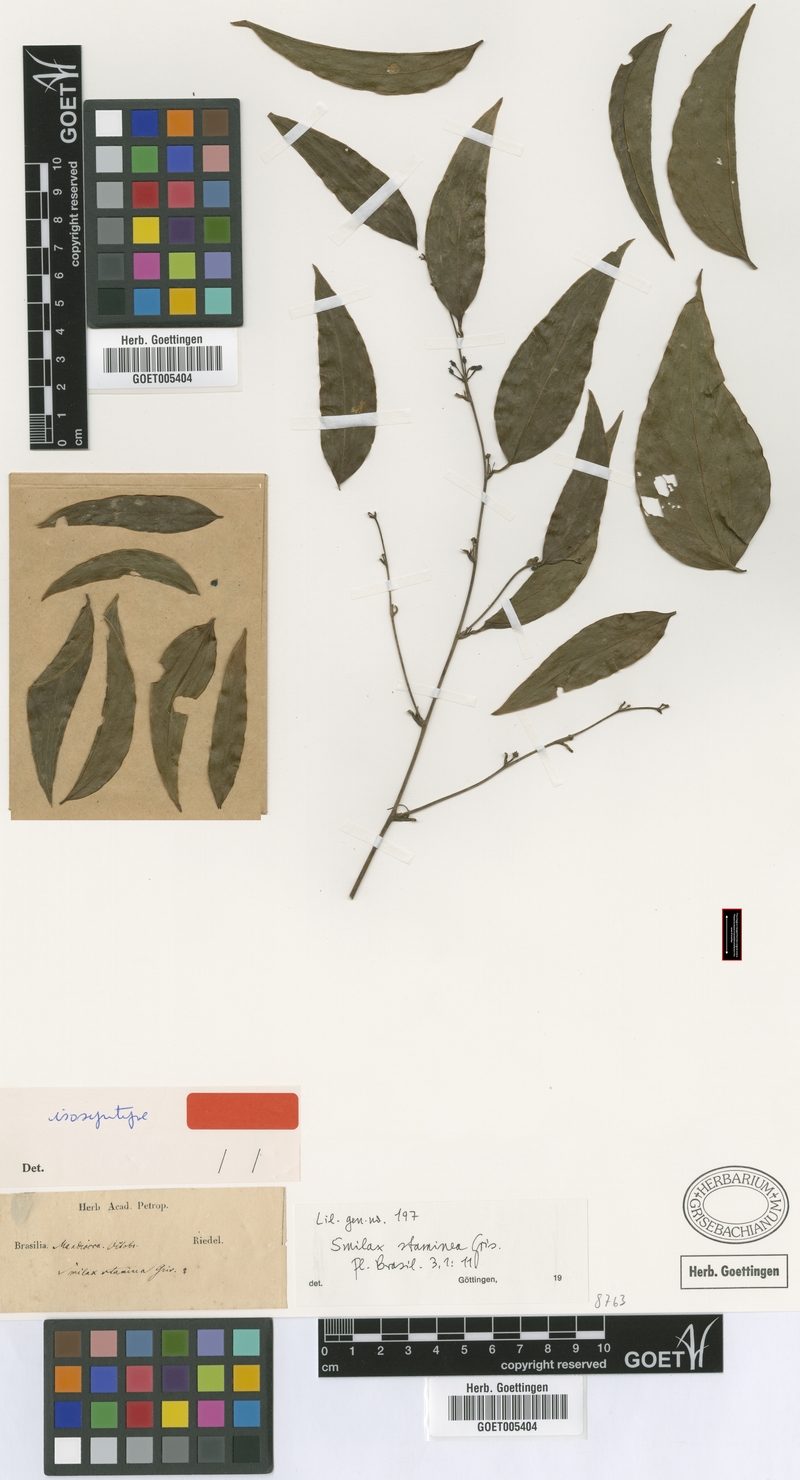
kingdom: Plantae
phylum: Tracheophyta
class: Liliopsida
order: Liliales
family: Smilacaceae
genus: Smilax
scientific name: Smilax domingensis
